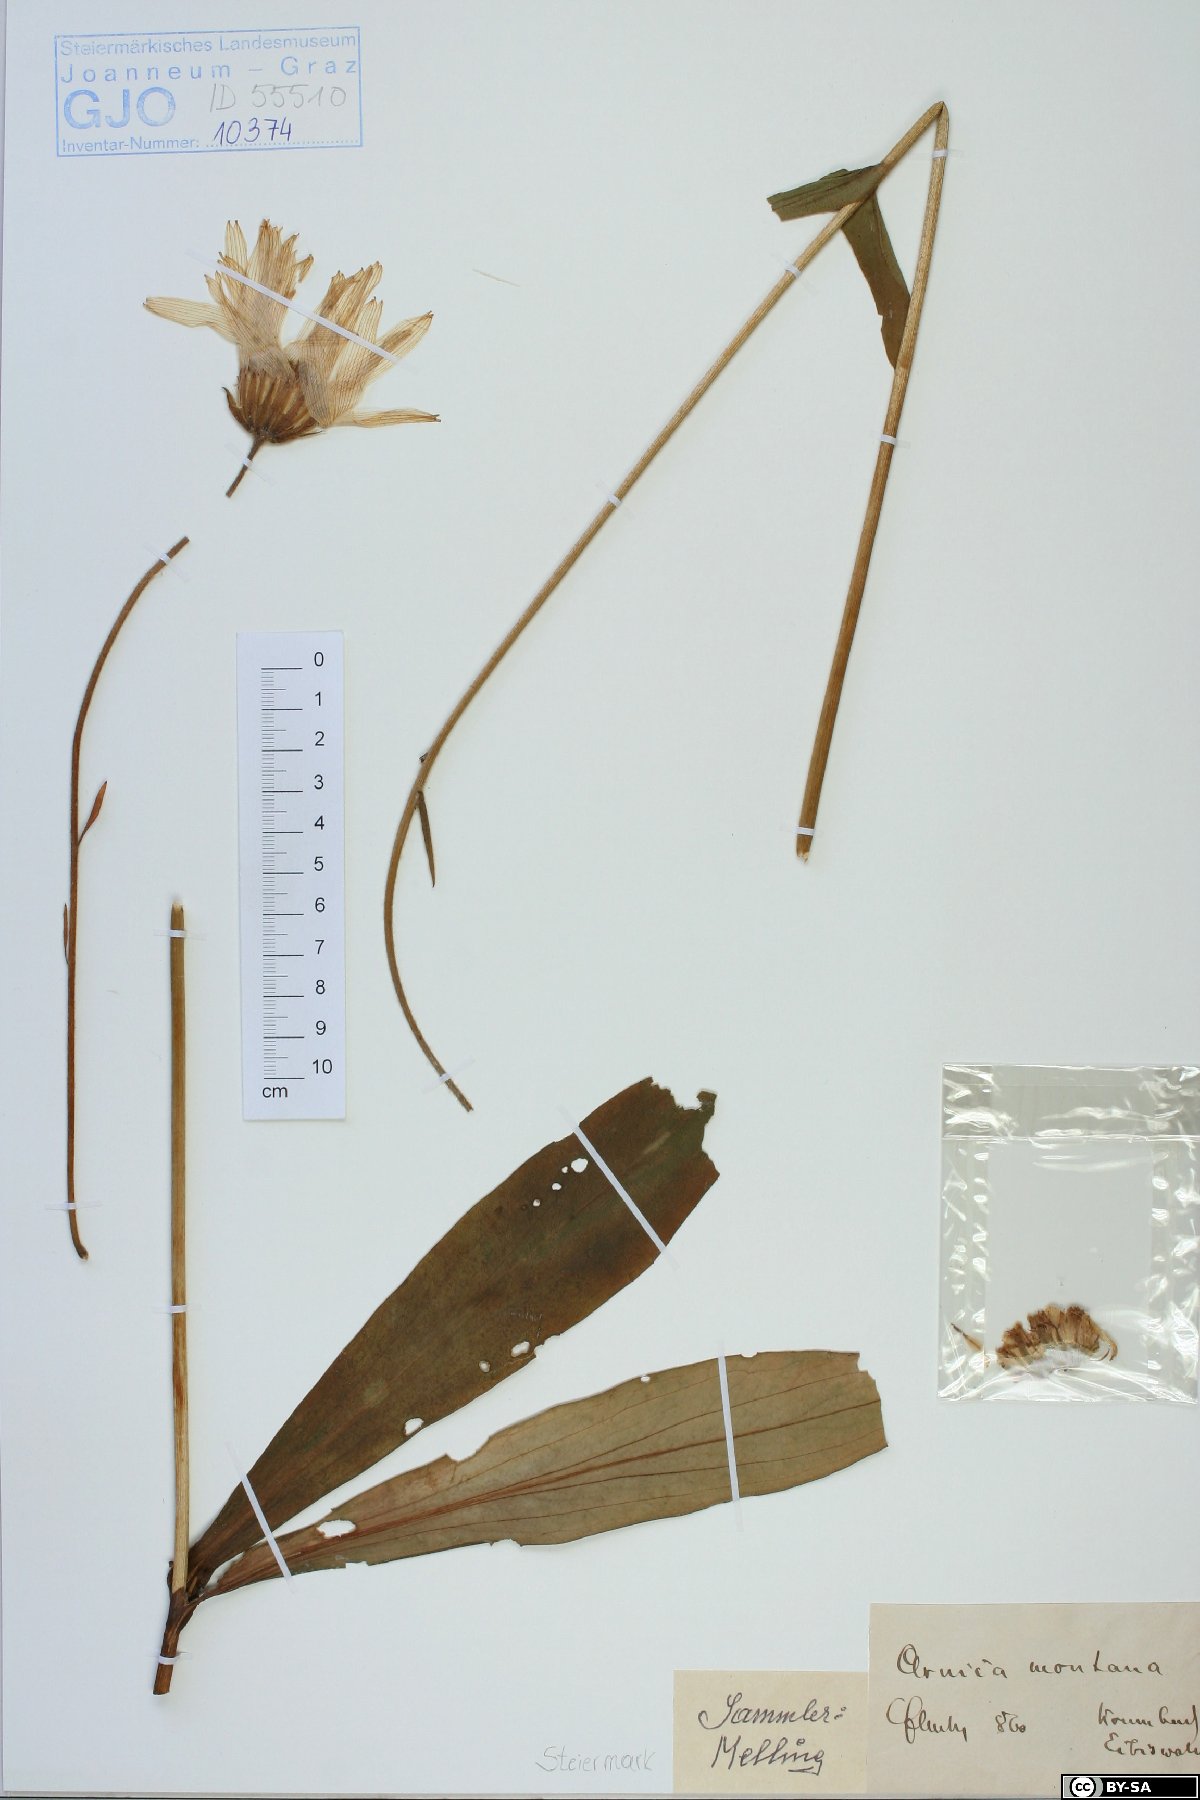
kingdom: Plantae
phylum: Tracheophyta
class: Magnoliopsida
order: Asterales
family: Asteraceae
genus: Arnica
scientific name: Arnica montana
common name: Leopard's bane
